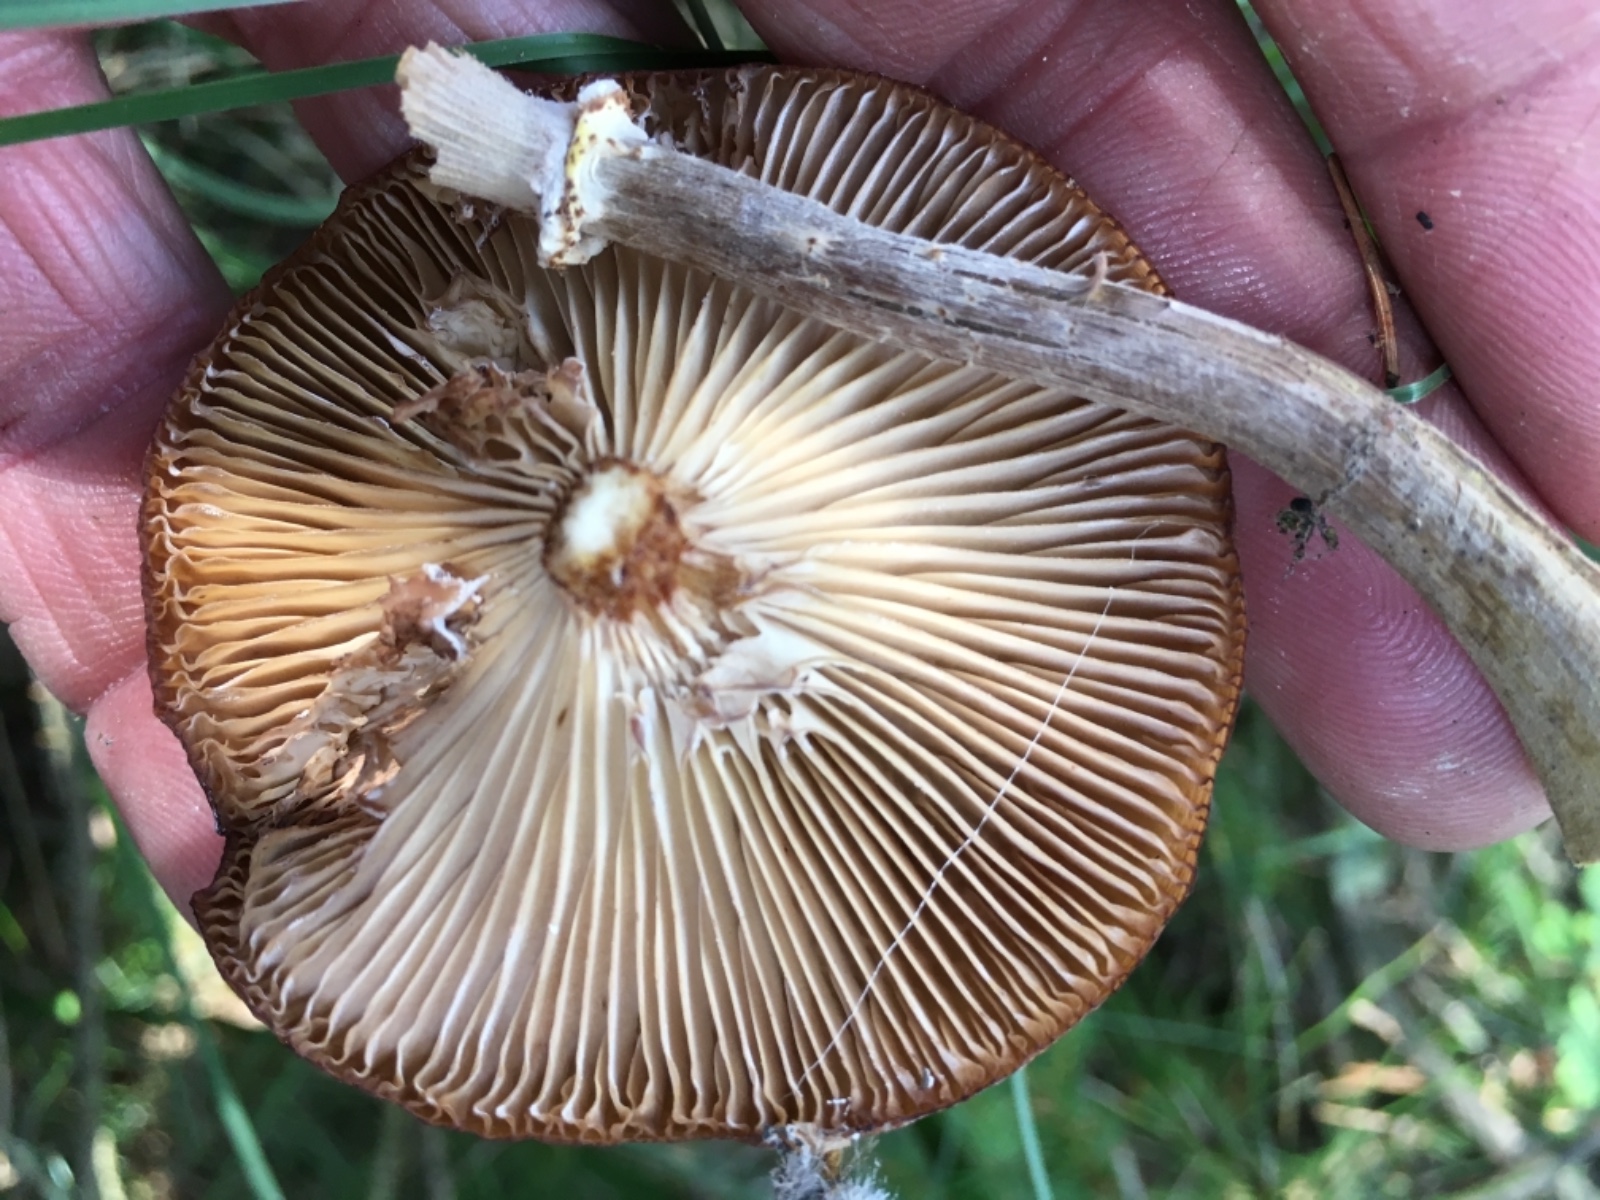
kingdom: Fungi
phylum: Basidiomycota
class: Agaricomycetes
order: Agaricales
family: Physalacriaceae
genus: Armillaria
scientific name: Armillaria ostoyae
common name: mørk honningsvamp
